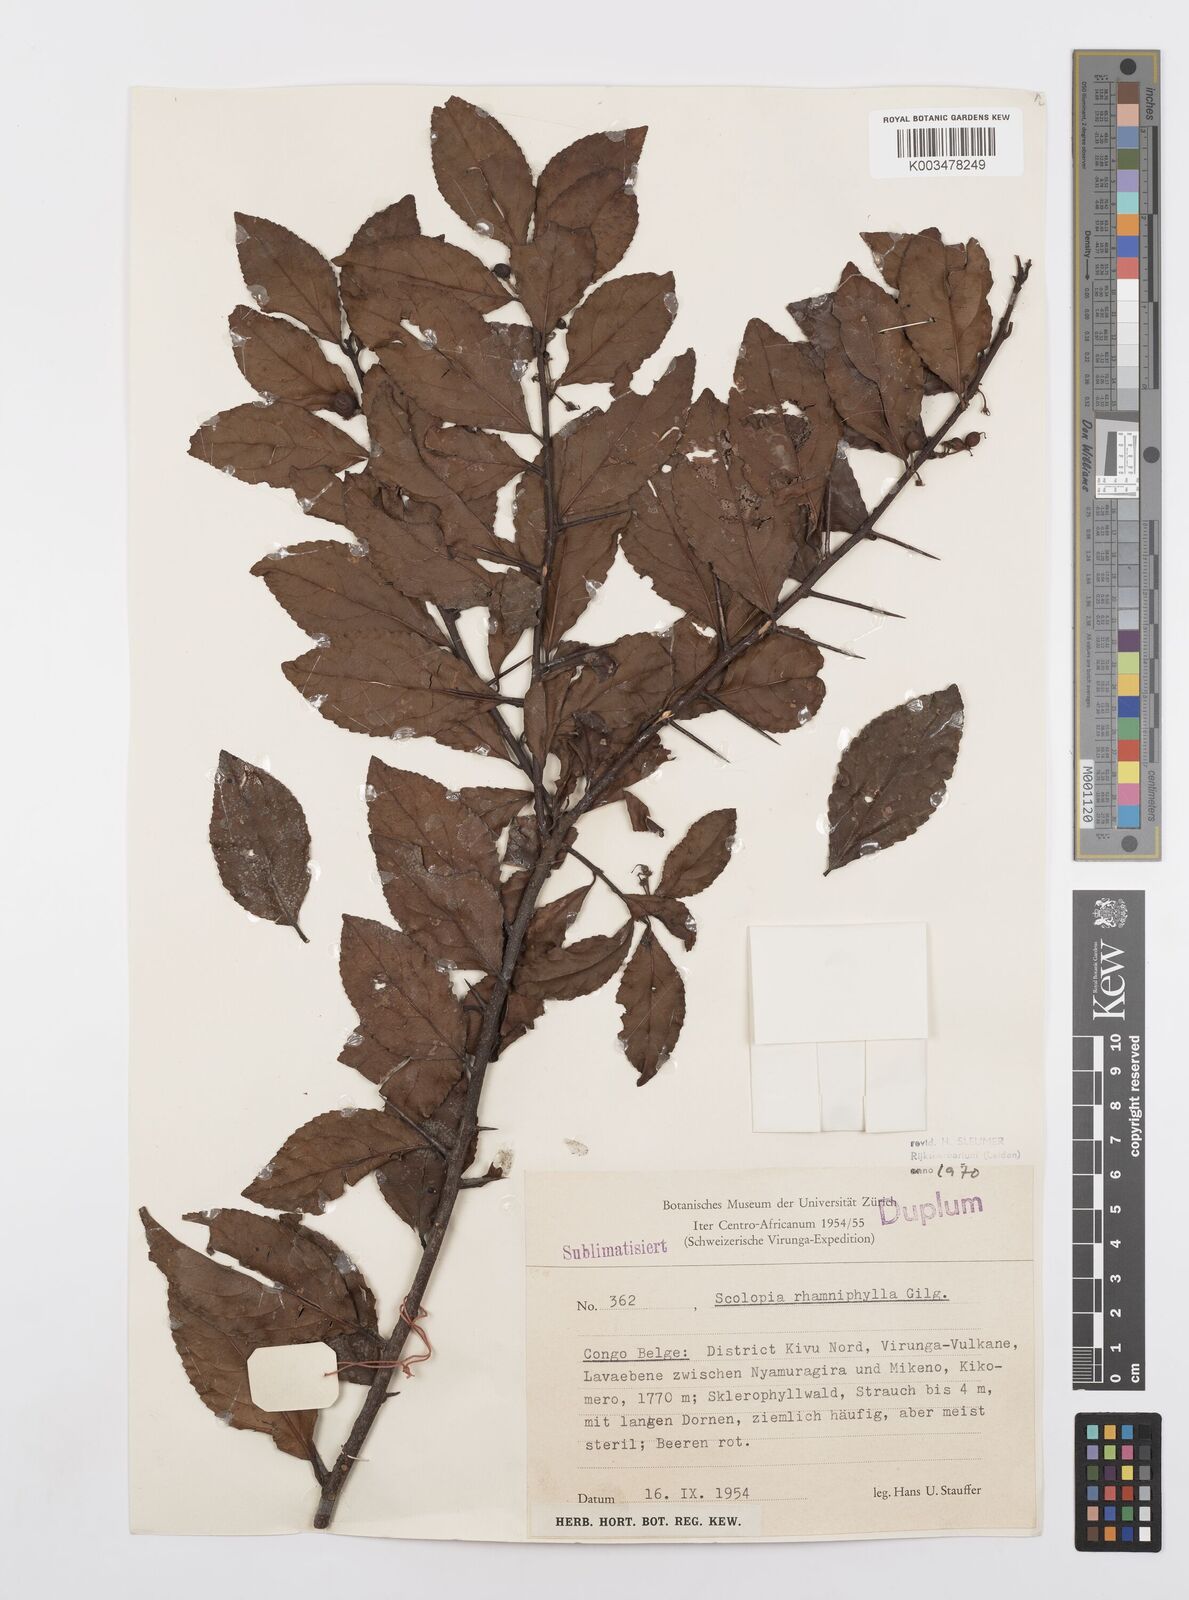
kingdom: Plantae
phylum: Tracheophyta
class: Magnoliopsida
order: Malpighiales
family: Salicaceae
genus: Scolopia
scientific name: Scolopia rhamniphylla
